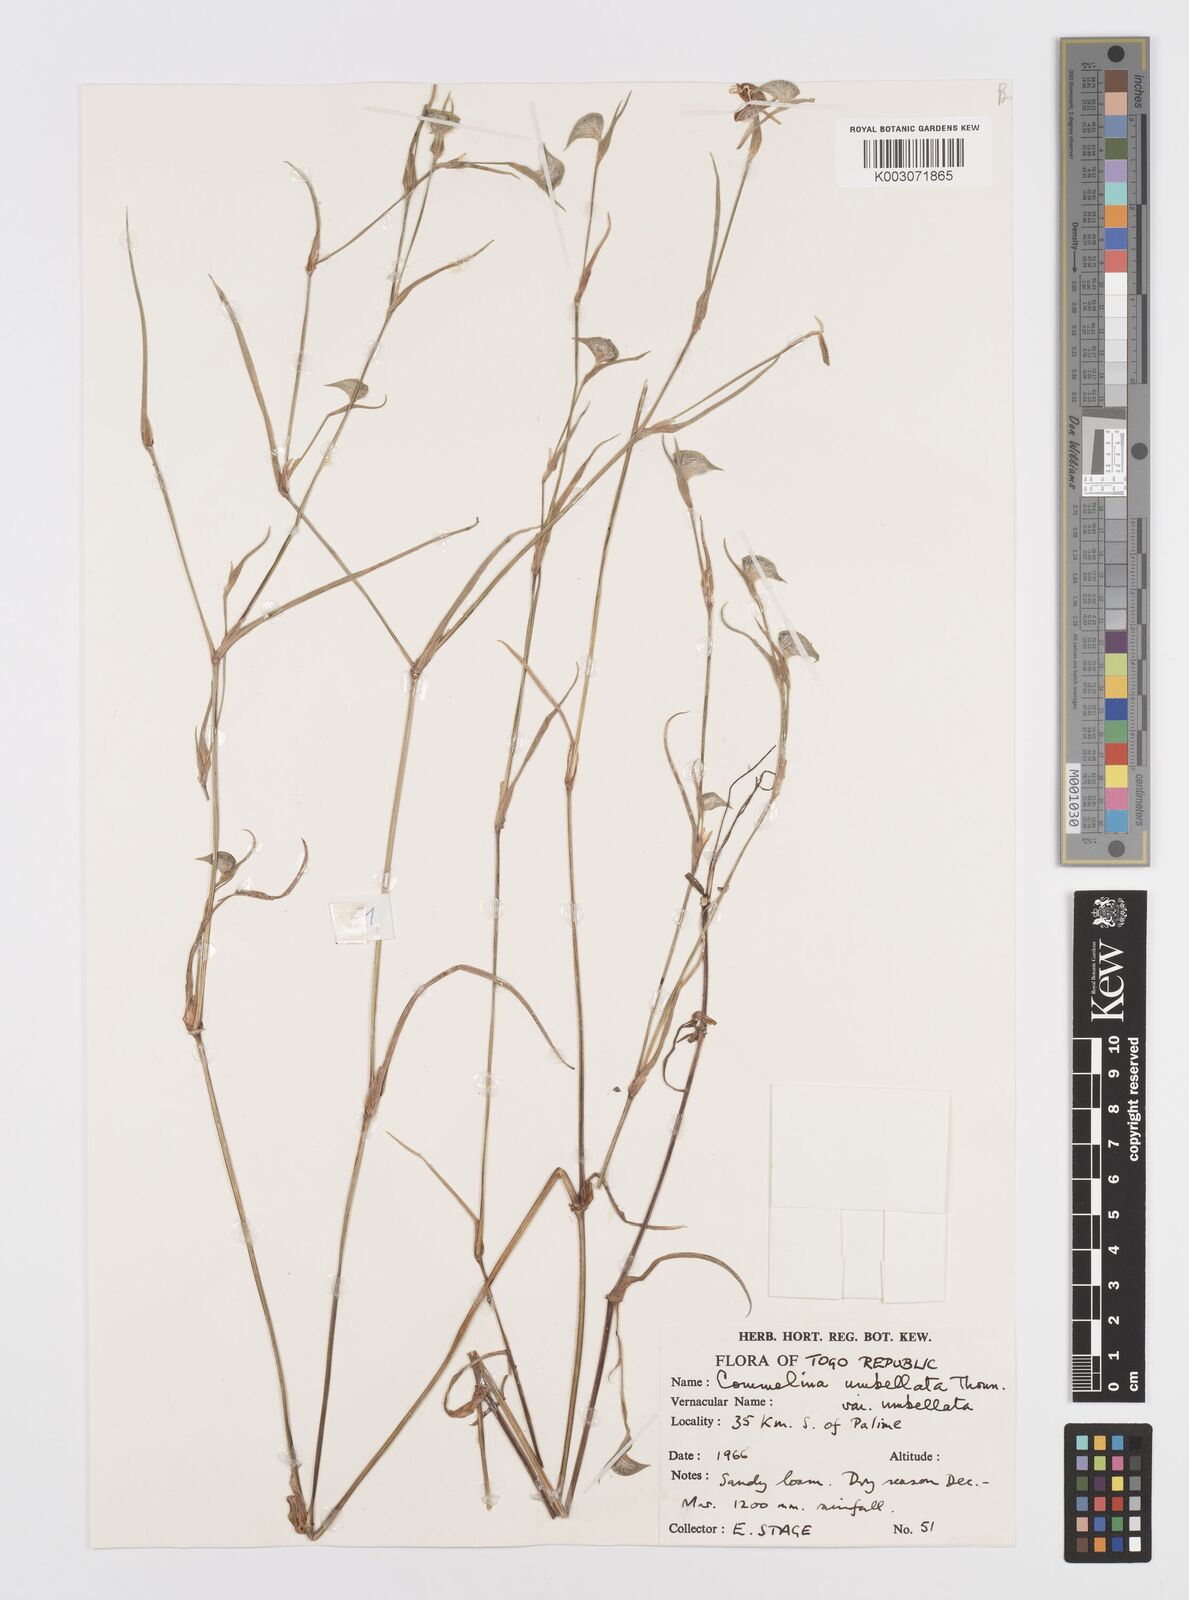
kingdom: Plantae
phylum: Tracheophyta
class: Liliopsida
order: Commelinales
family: Commelinaceae
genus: Commelina
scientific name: Commelina
